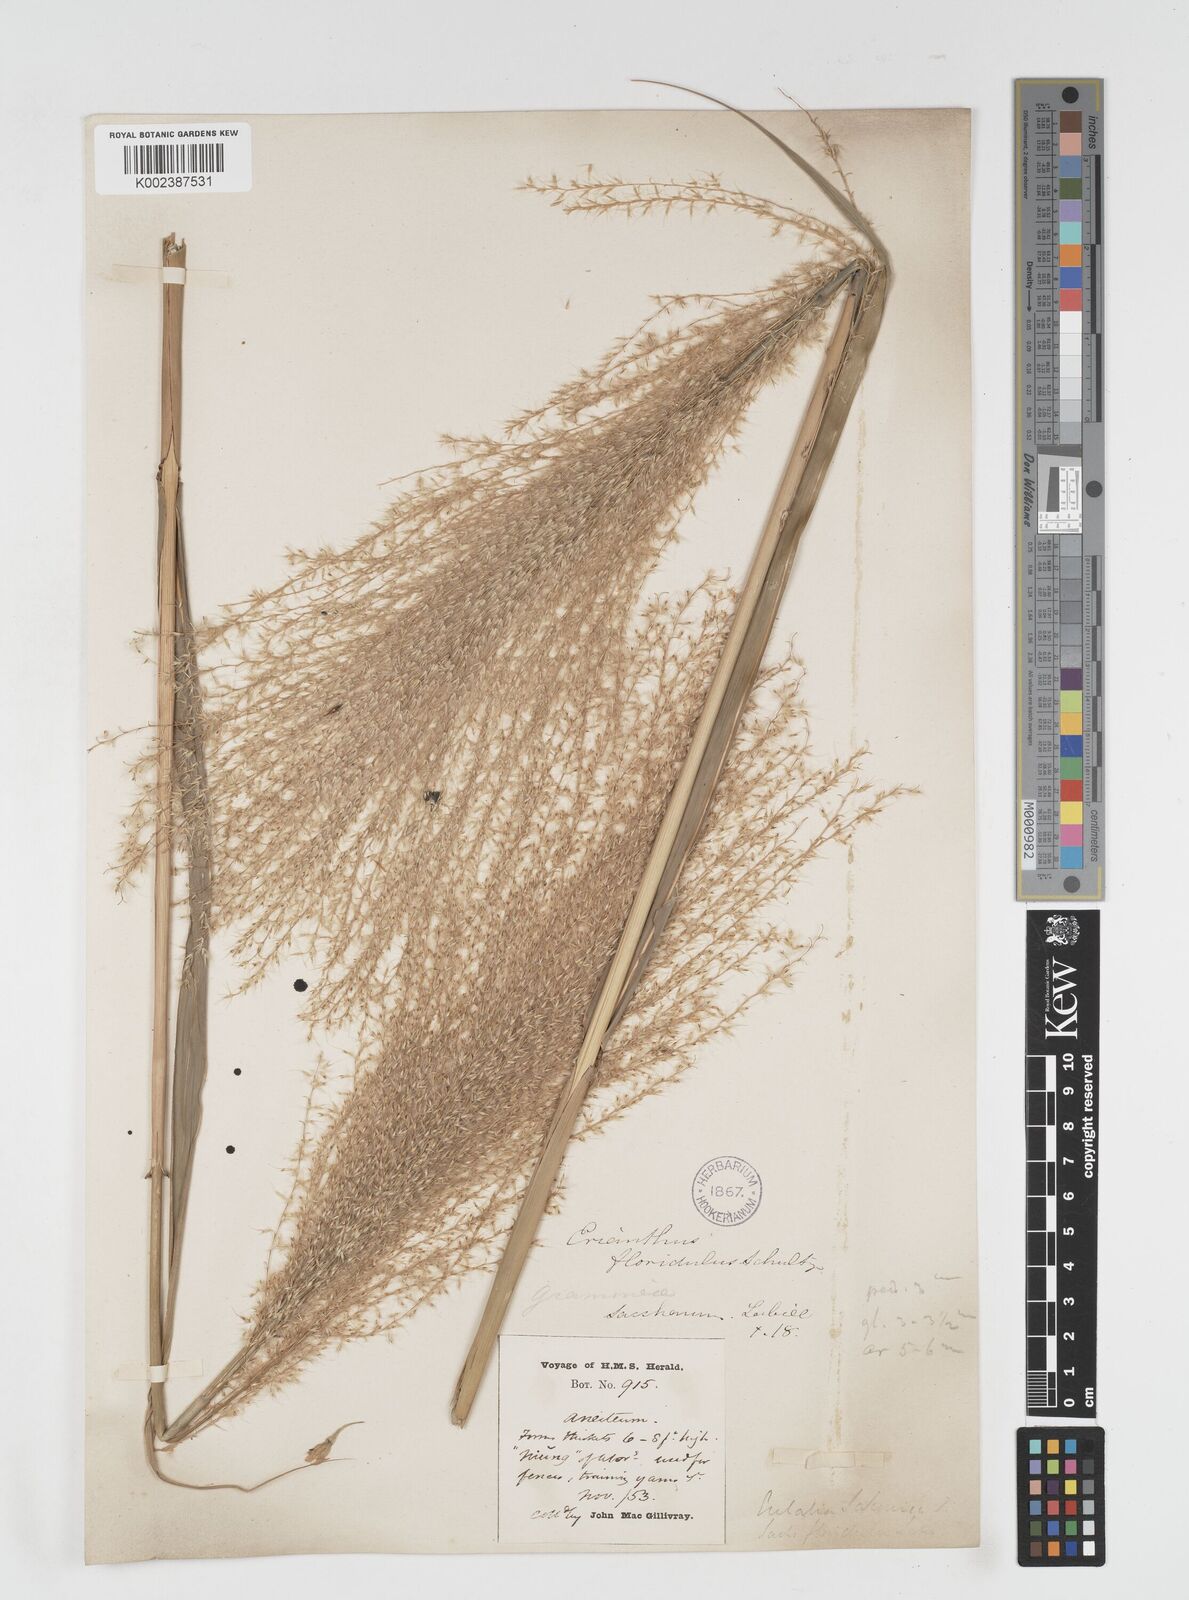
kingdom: Plantae
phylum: Tracheophyta
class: Liliopsida
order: Poales
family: Poaceae
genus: Miscanthus
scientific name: Miscanthus floridulus
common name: Pacific island silvergrass
